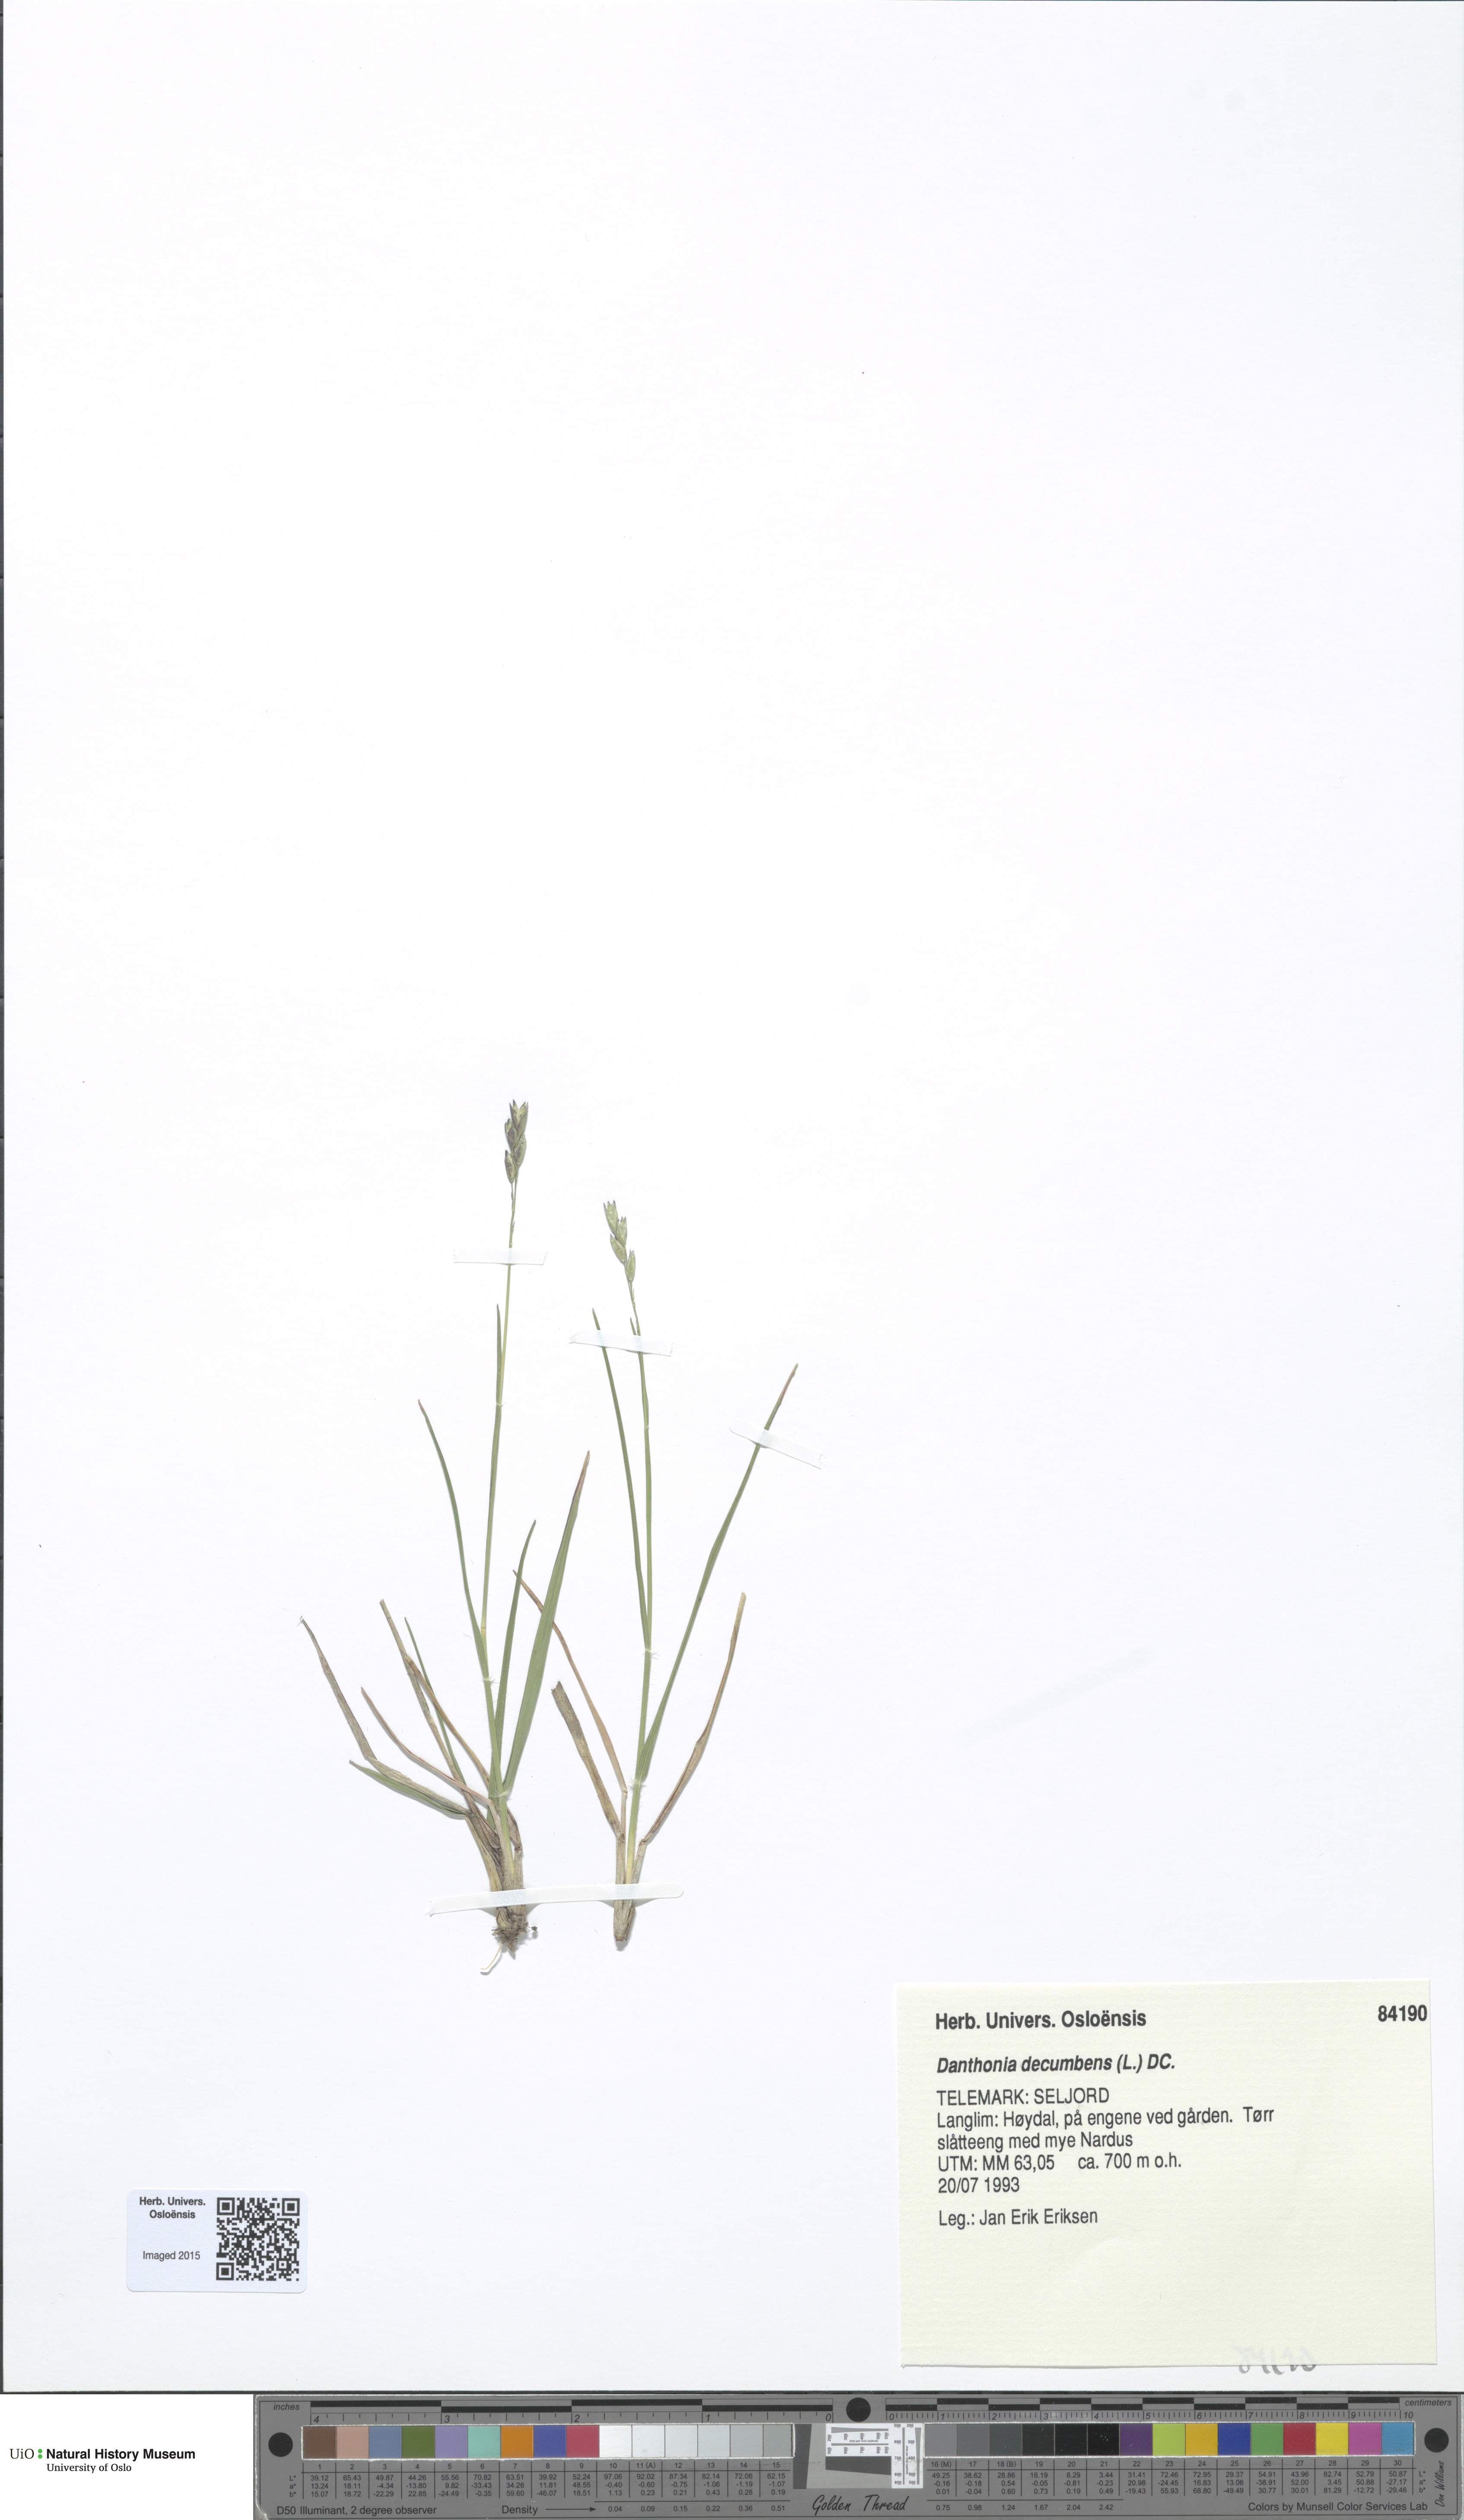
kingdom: Plantae
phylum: Tracheophyta
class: Liliopsida
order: Poales
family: Poaceae
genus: Danthonia
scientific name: Danthonia decumbens
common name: Common heathgrass
